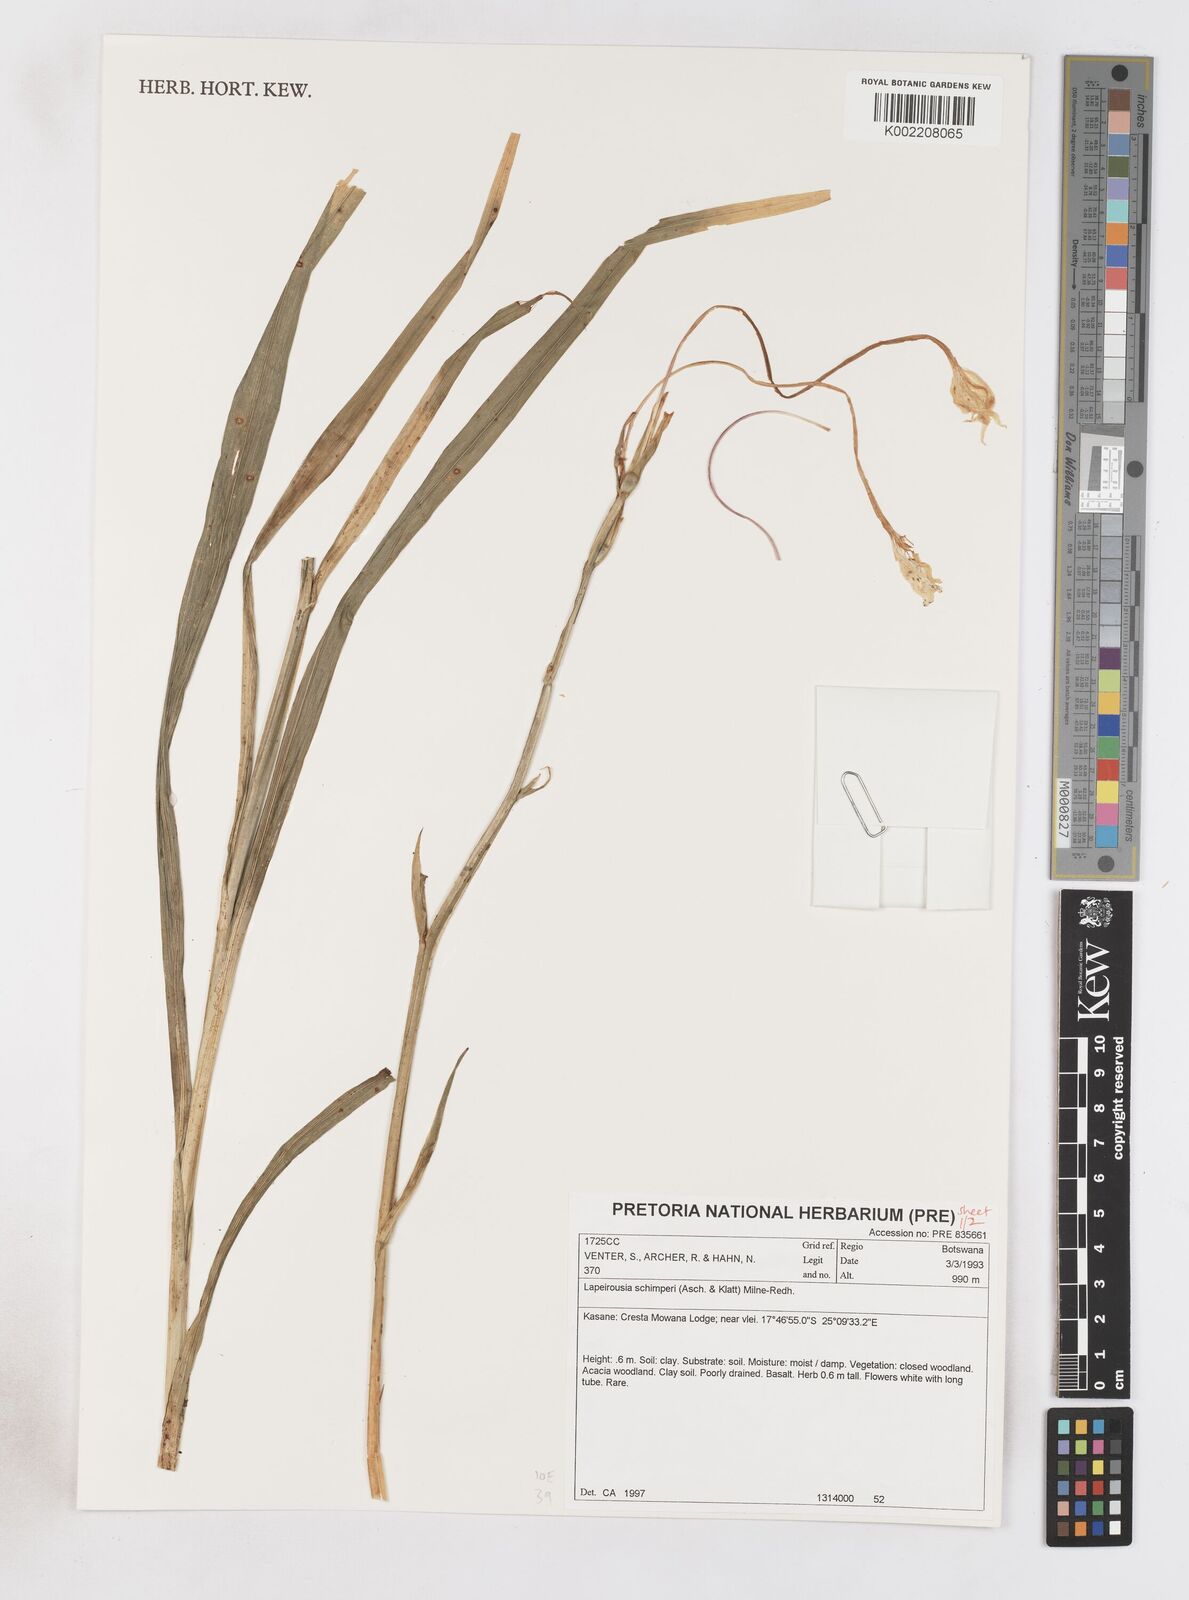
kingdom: Plantae
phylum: Tracheophyta
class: Liliopsida
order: Asparagales
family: Iridaceae
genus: Afrosolen
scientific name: Afrosolen schimperi
